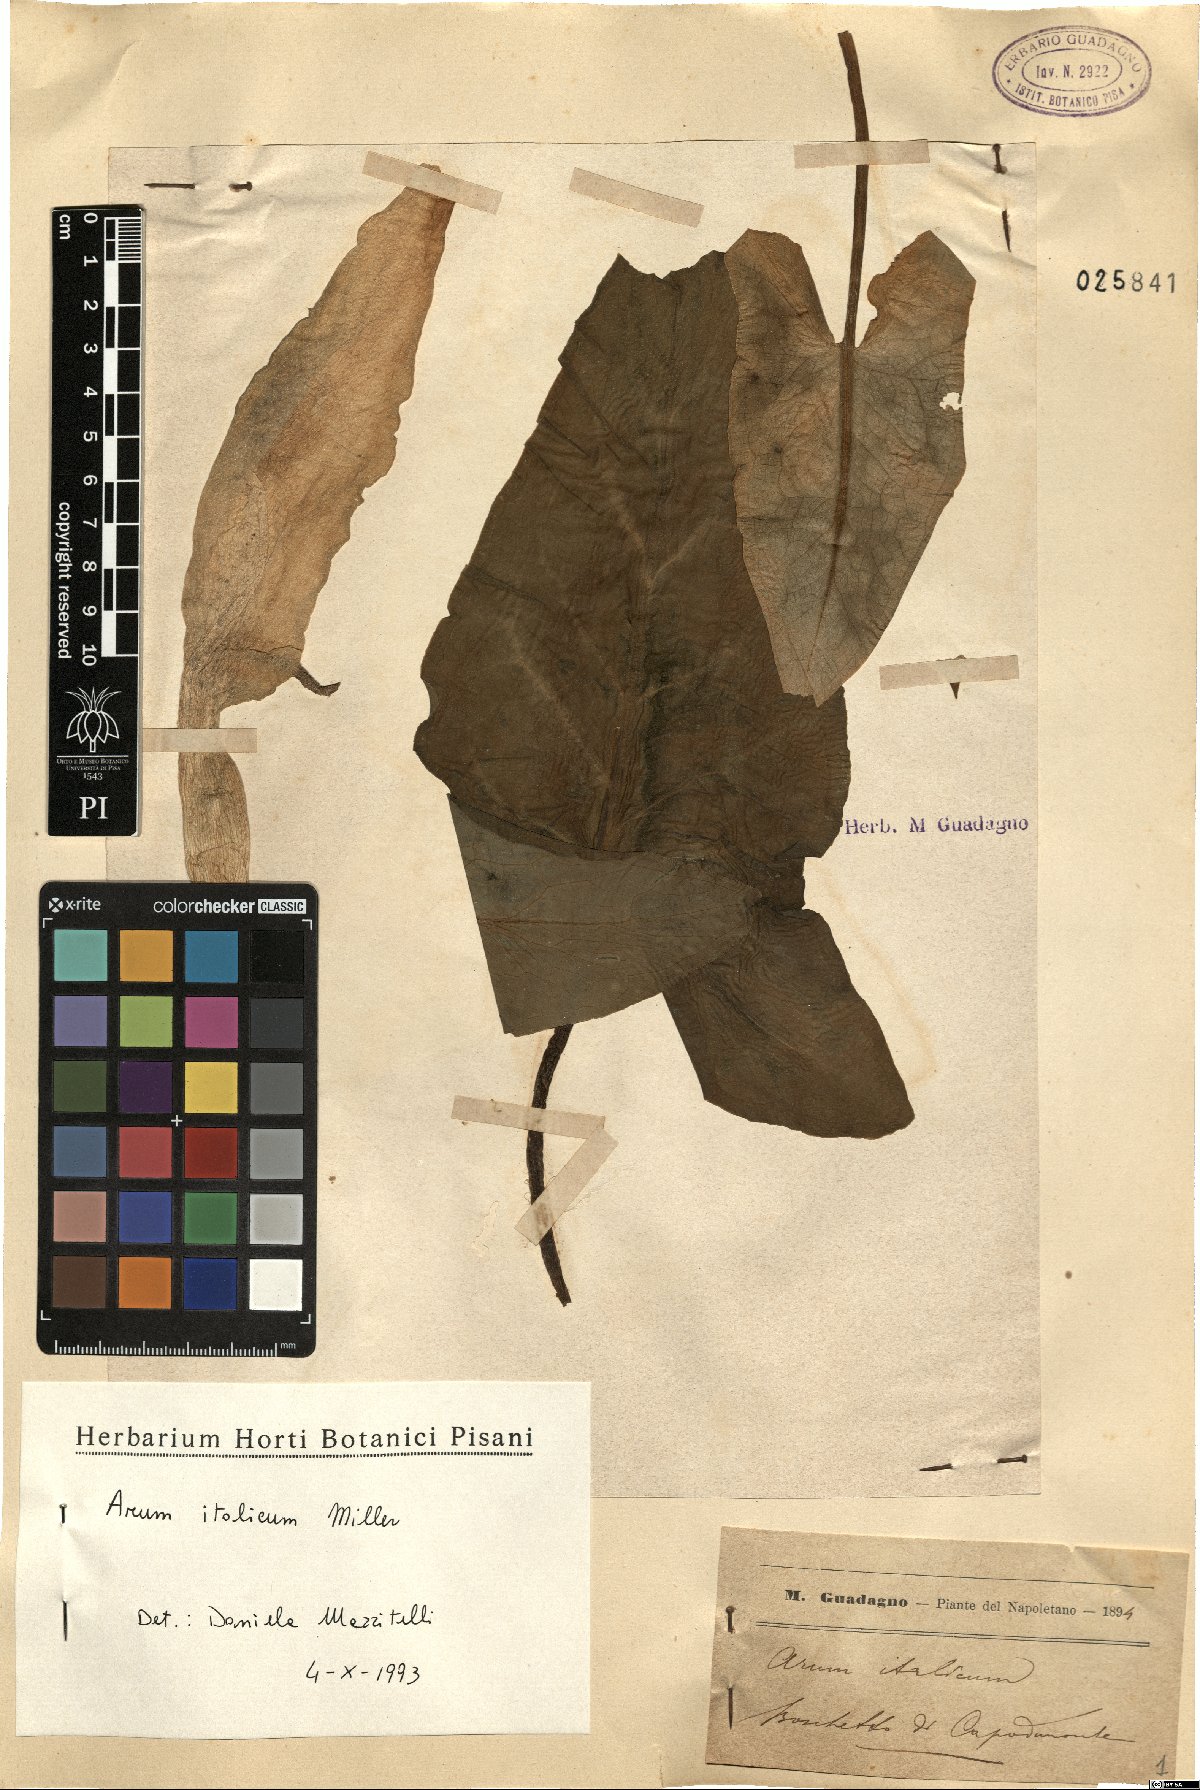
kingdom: Plantae
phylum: Tracheophyta
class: Liliopsida
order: Alismatales
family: Araceae
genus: Arum
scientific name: Arum italicum
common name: Italian lords-and-ladies
